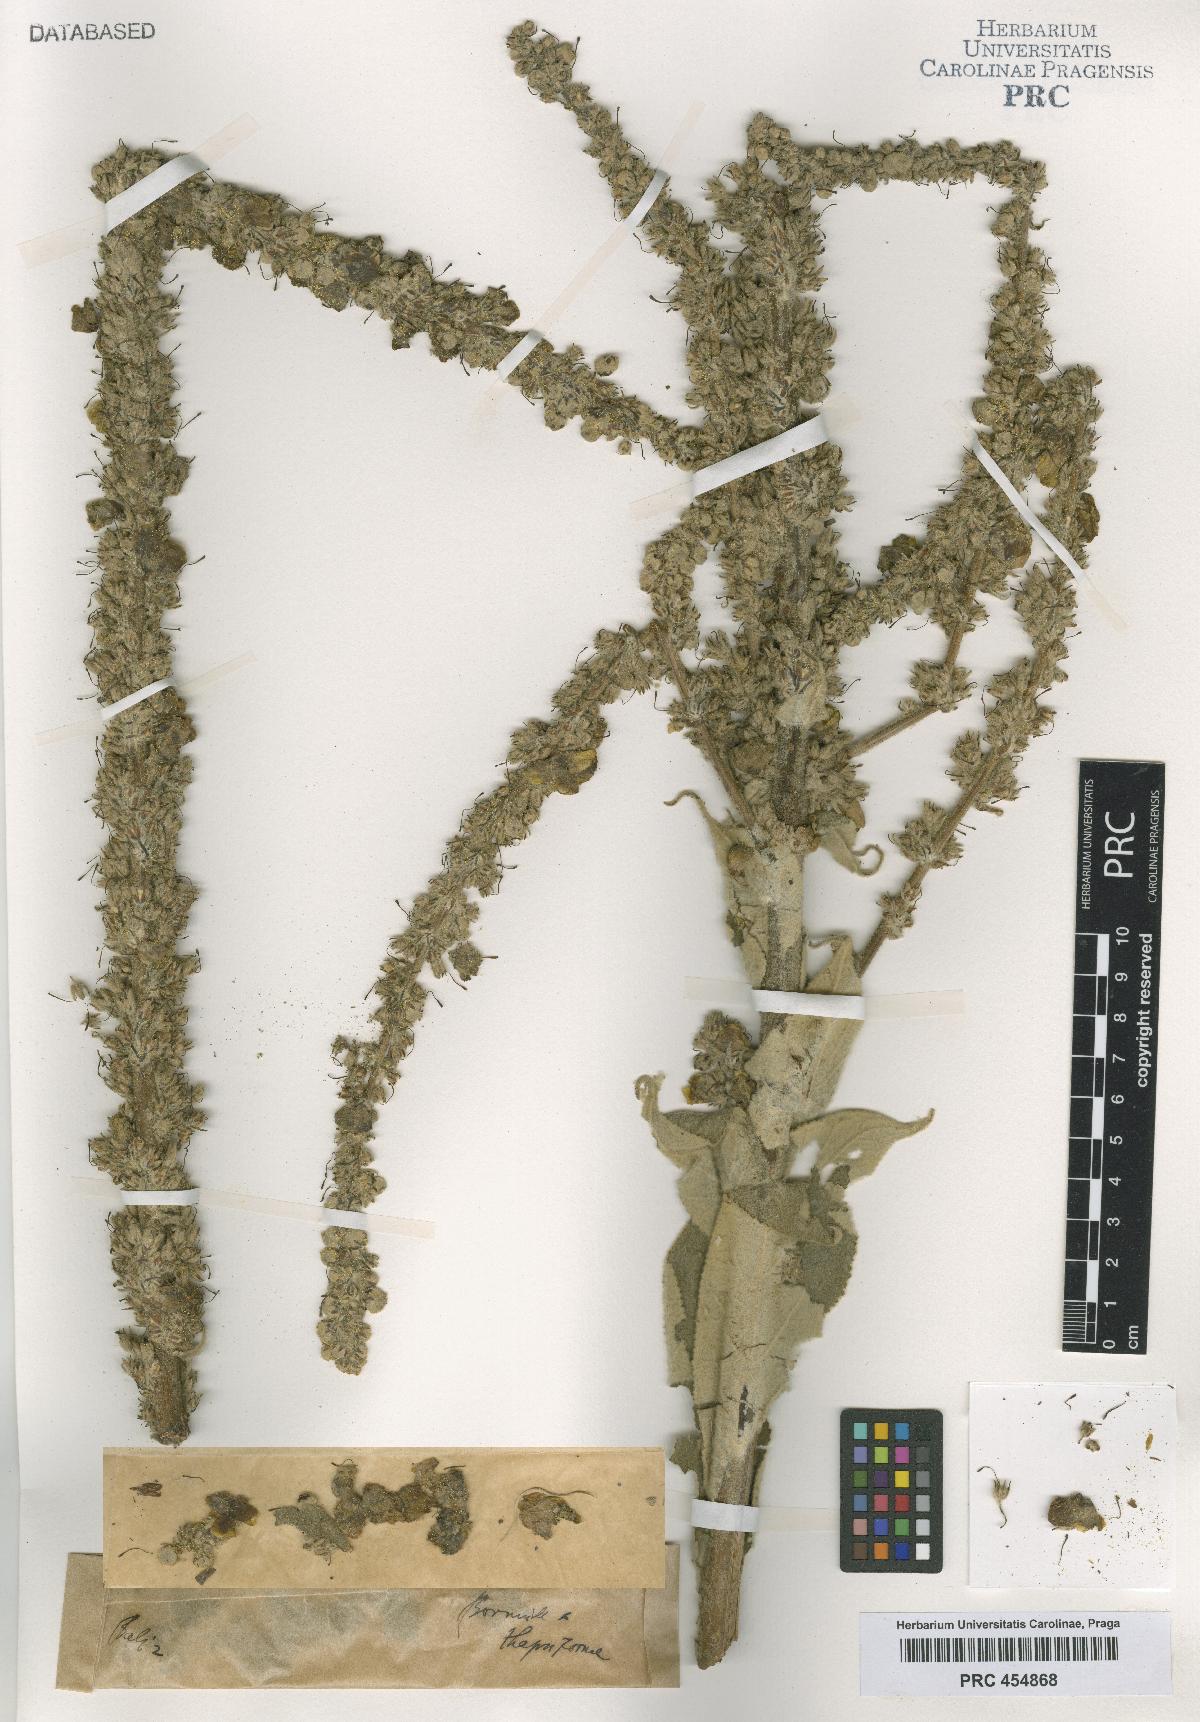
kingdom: Plantae
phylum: Tracheophyta
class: Magnoliopsida
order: Lamiales
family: Scrophulariaceae
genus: Verbascum
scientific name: Verbascum dominii
